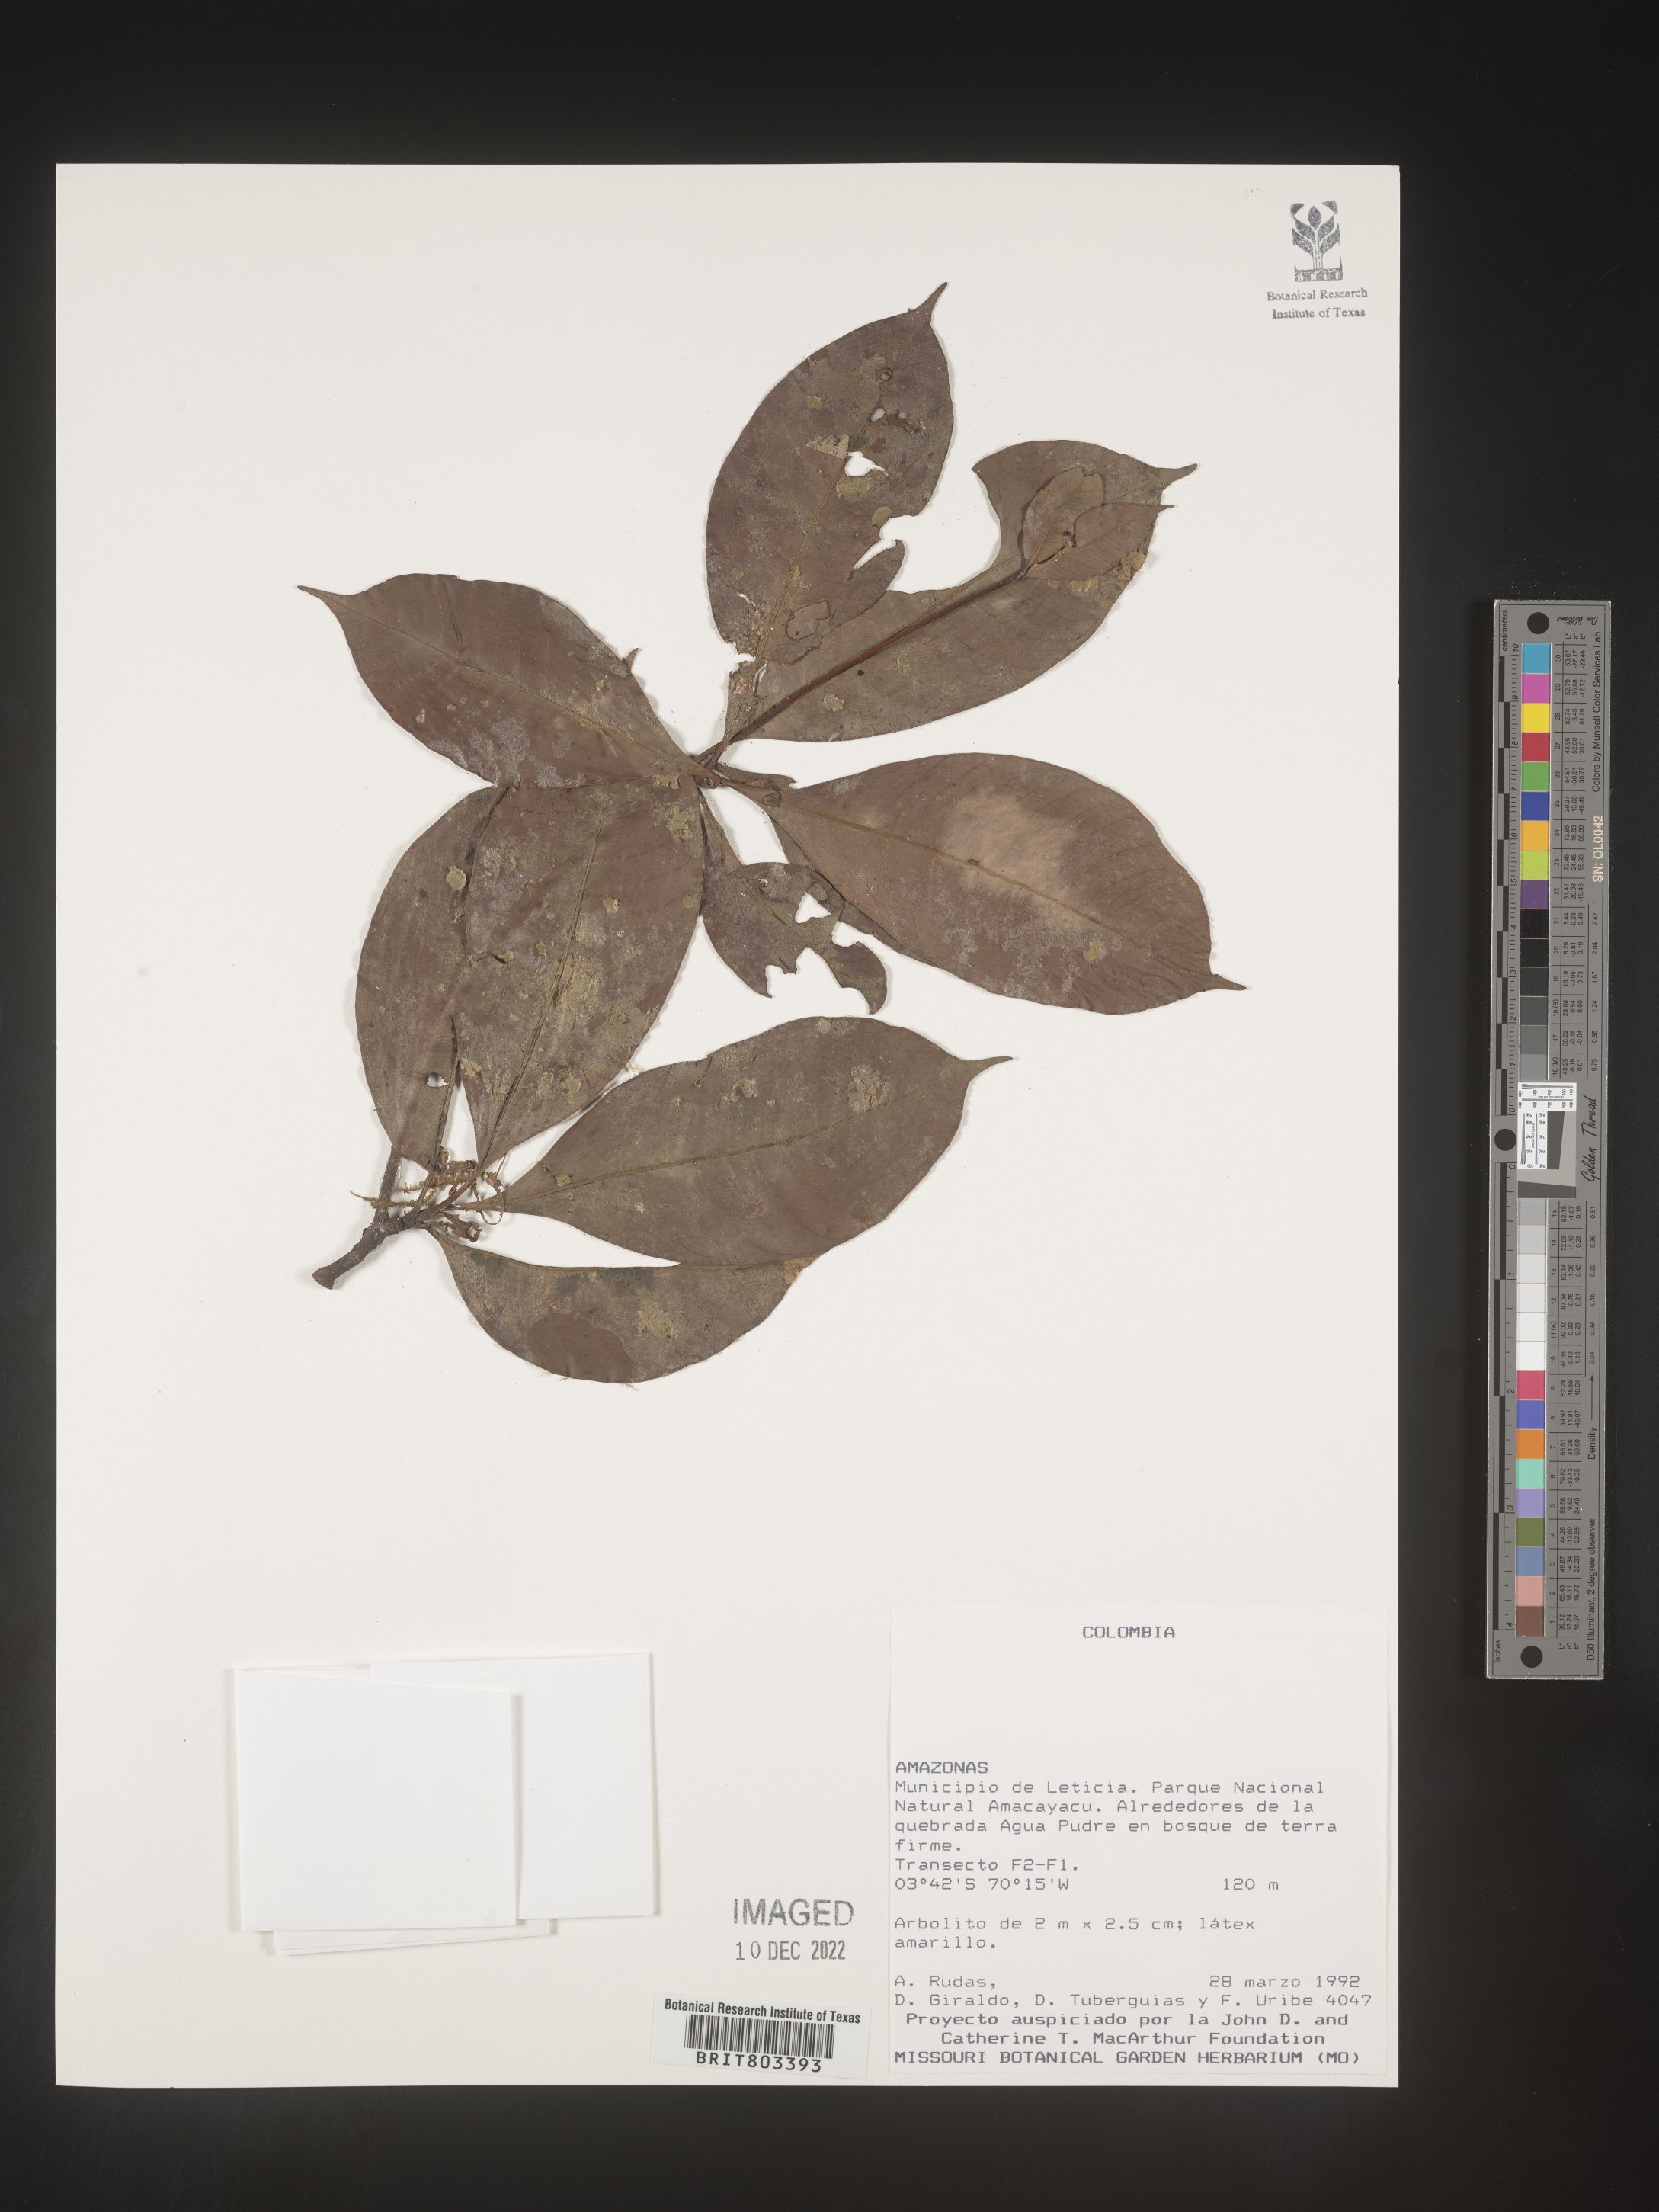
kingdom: Plantae
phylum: Tracheophyta
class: Magnoliopsida
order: Malpighiales
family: Clusiaceae
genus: Tovomita
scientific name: Tovomita
